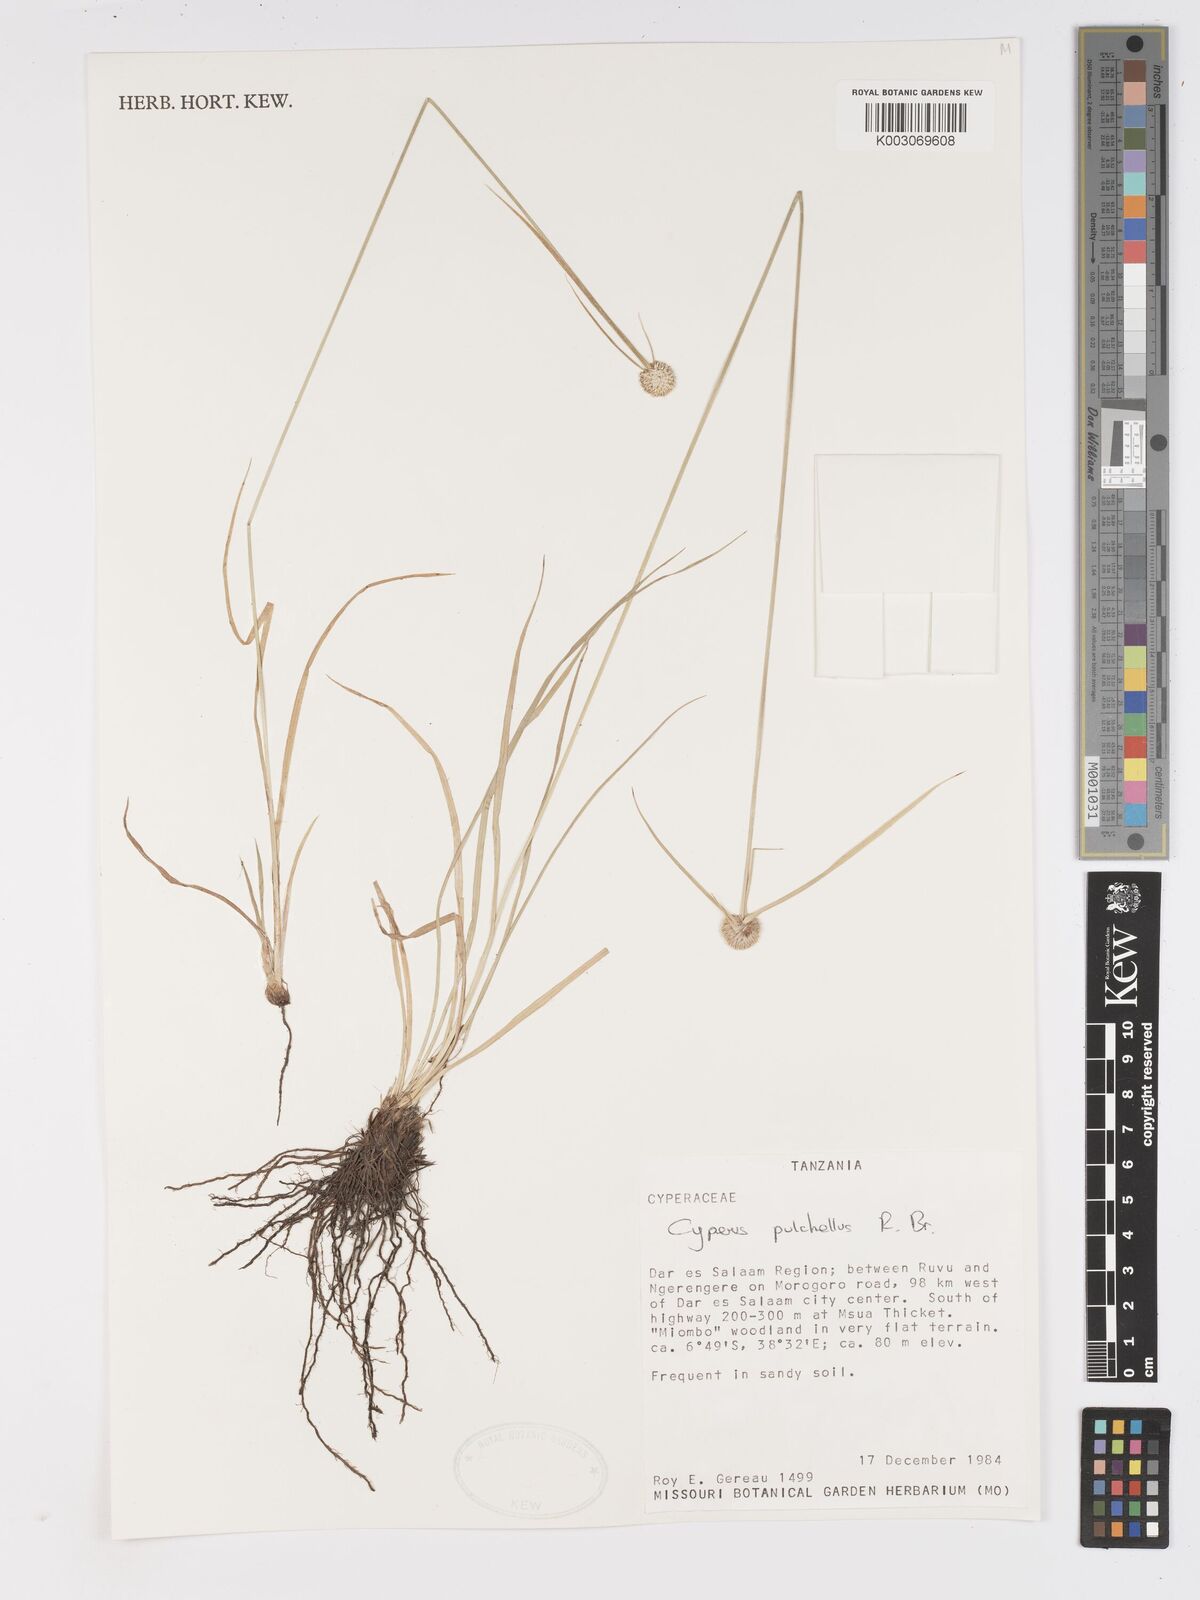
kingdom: Plantae
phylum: Tracheophyta
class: Liliopsida
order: Poales
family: Cyperaceae
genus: Cyperus
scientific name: Cyperus pulchellus
